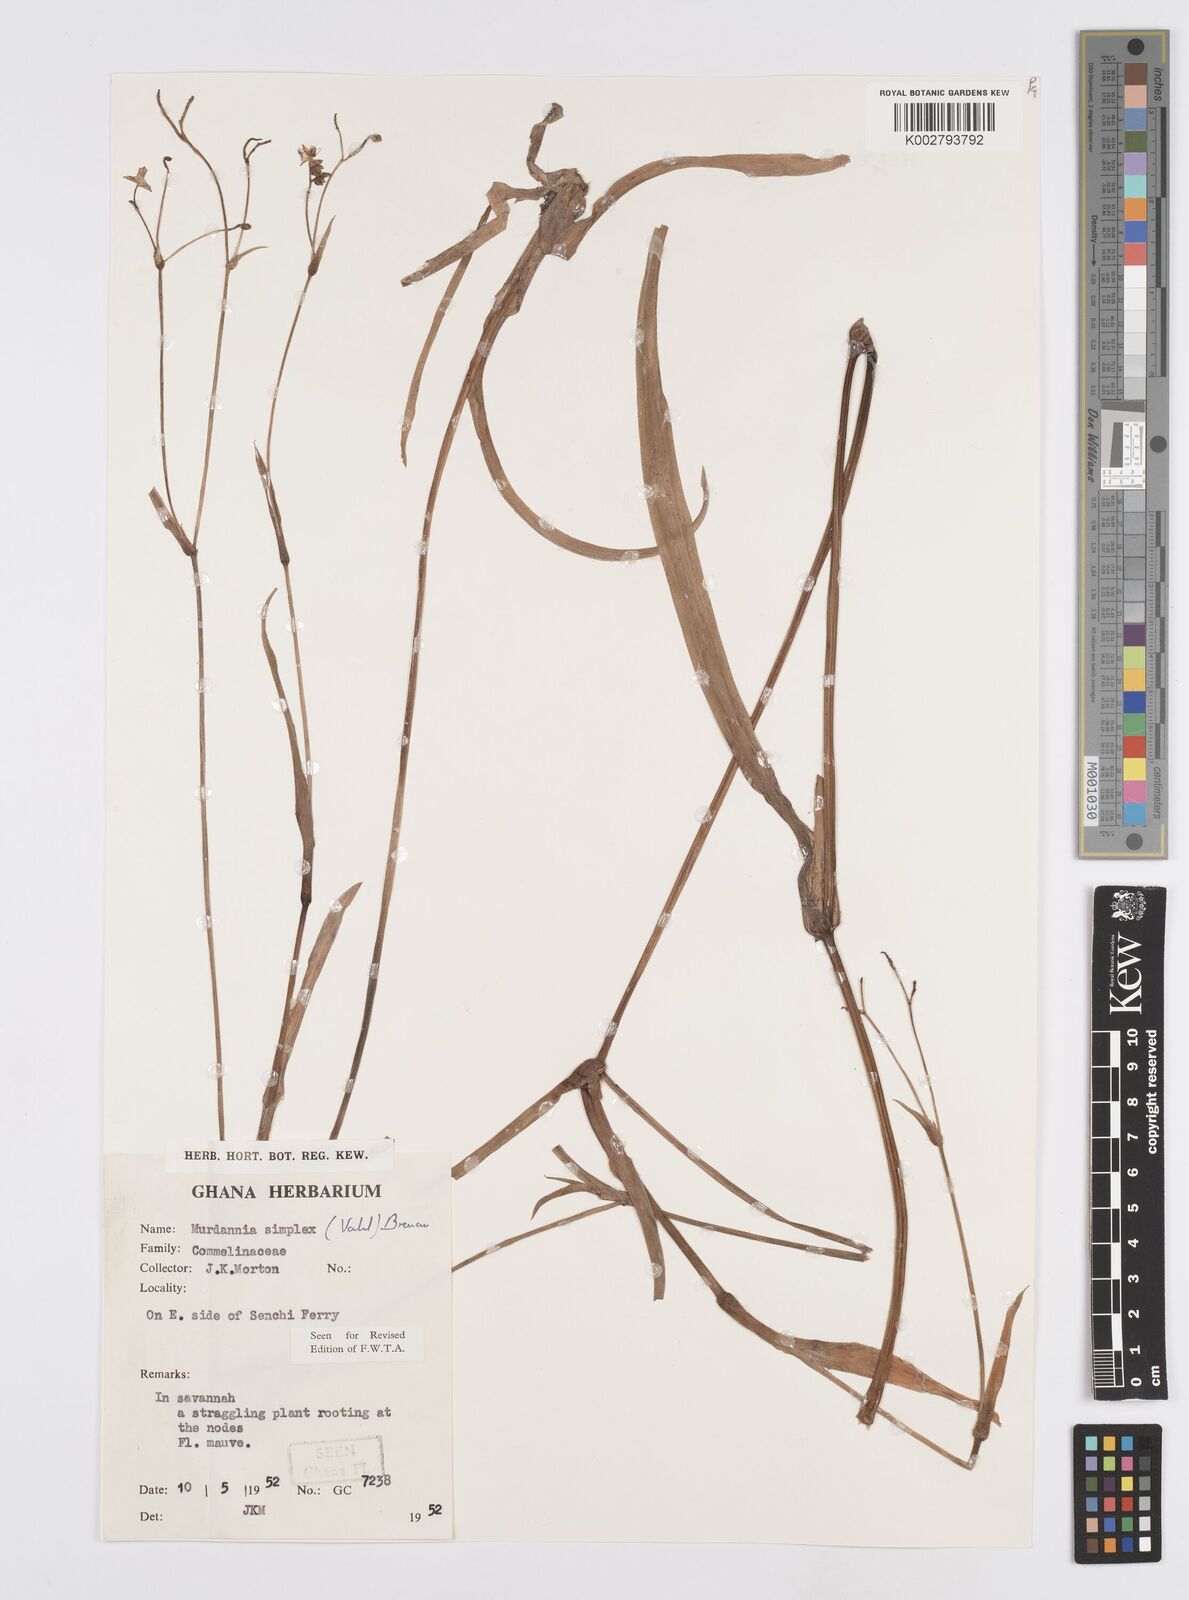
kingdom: Plantae
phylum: Tracheophyta
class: Liliopsida
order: Commelinales
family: Commelinaceae
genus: Murdannia
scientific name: Murdannia simplex
